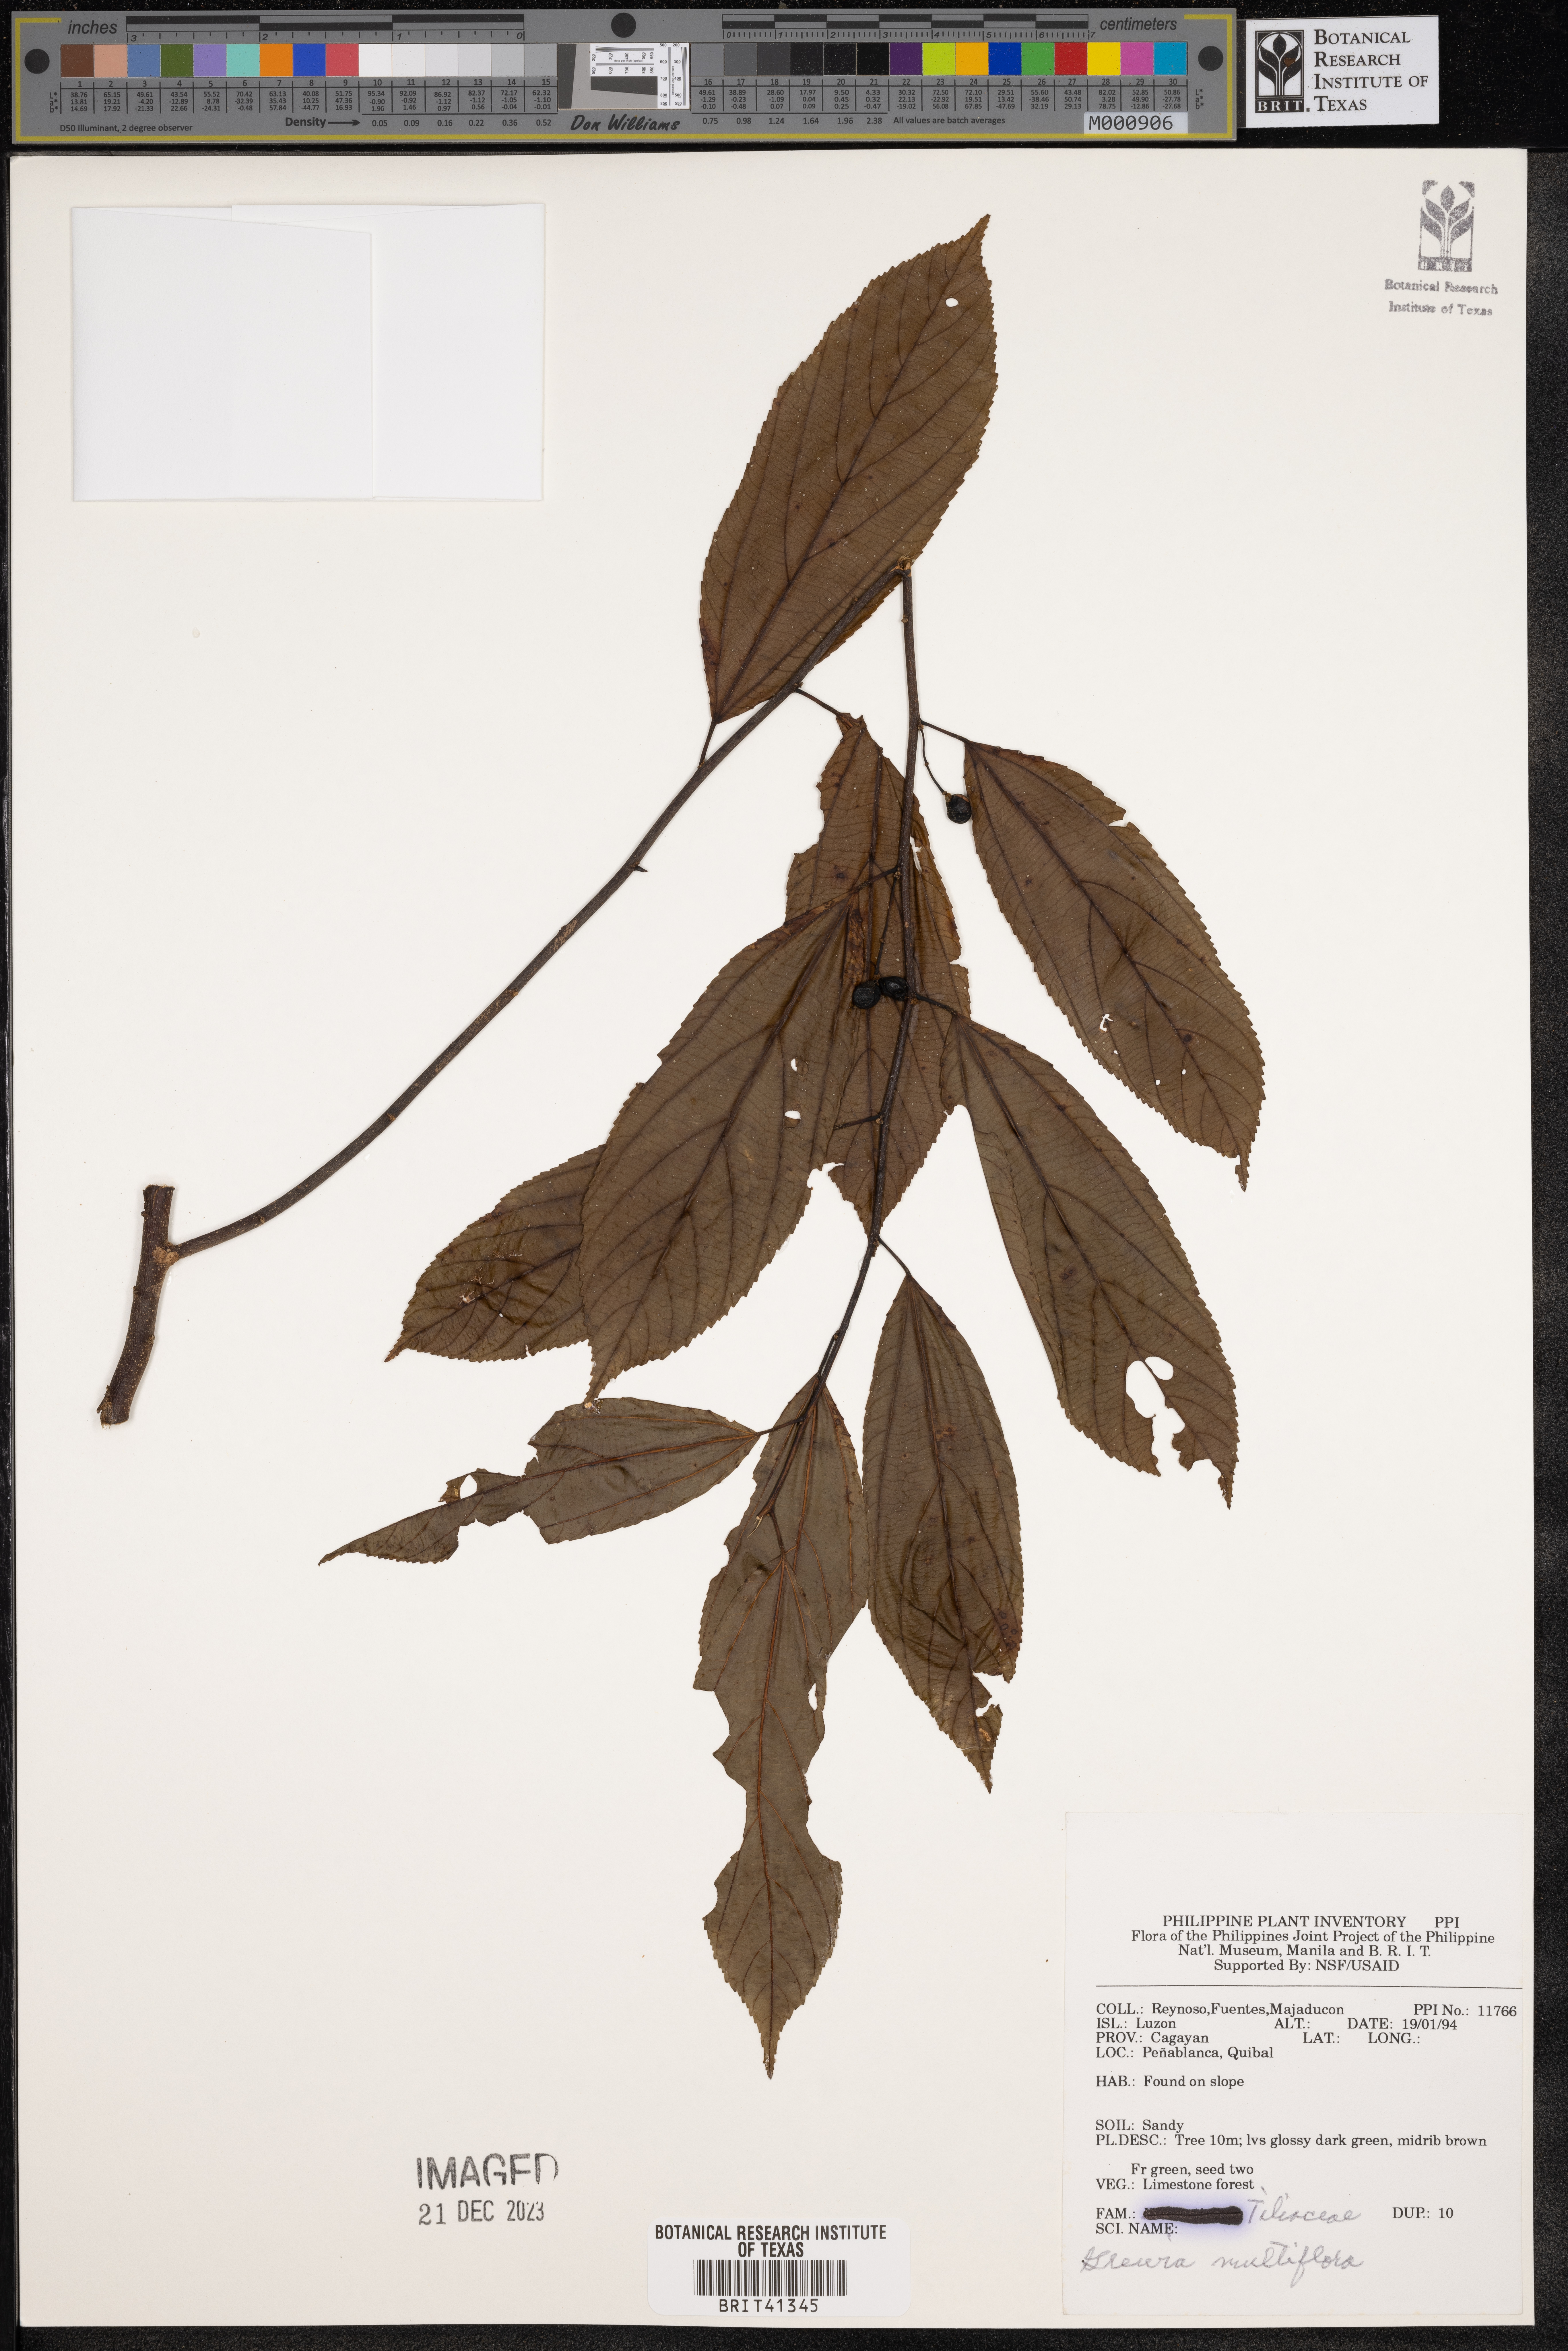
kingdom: Plantae
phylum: Tracheophyta
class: Magnoliopsida
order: Malvales
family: Malvaceae
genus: Grewia
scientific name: Grewia multiflora
